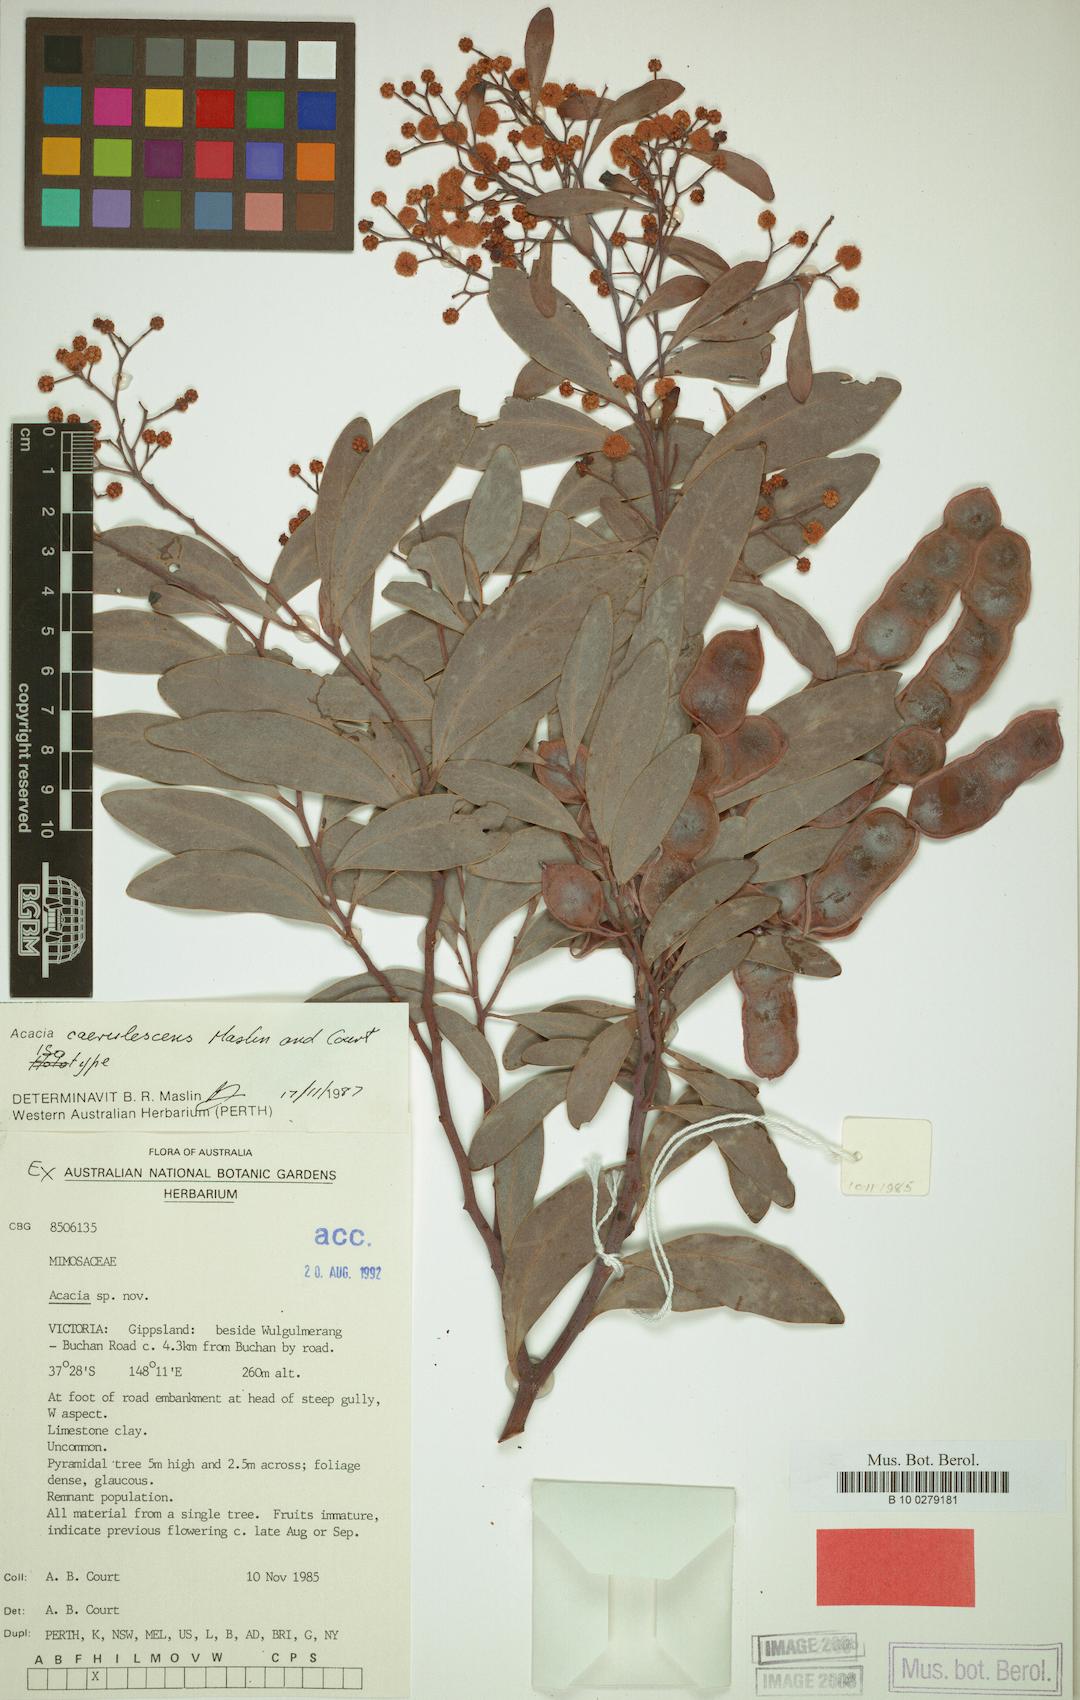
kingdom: Plantae
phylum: Tracheophyta
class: Magnoliopsida
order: Fabales
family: Fabaceae
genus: Acacia
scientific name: Acacia caerulescens
